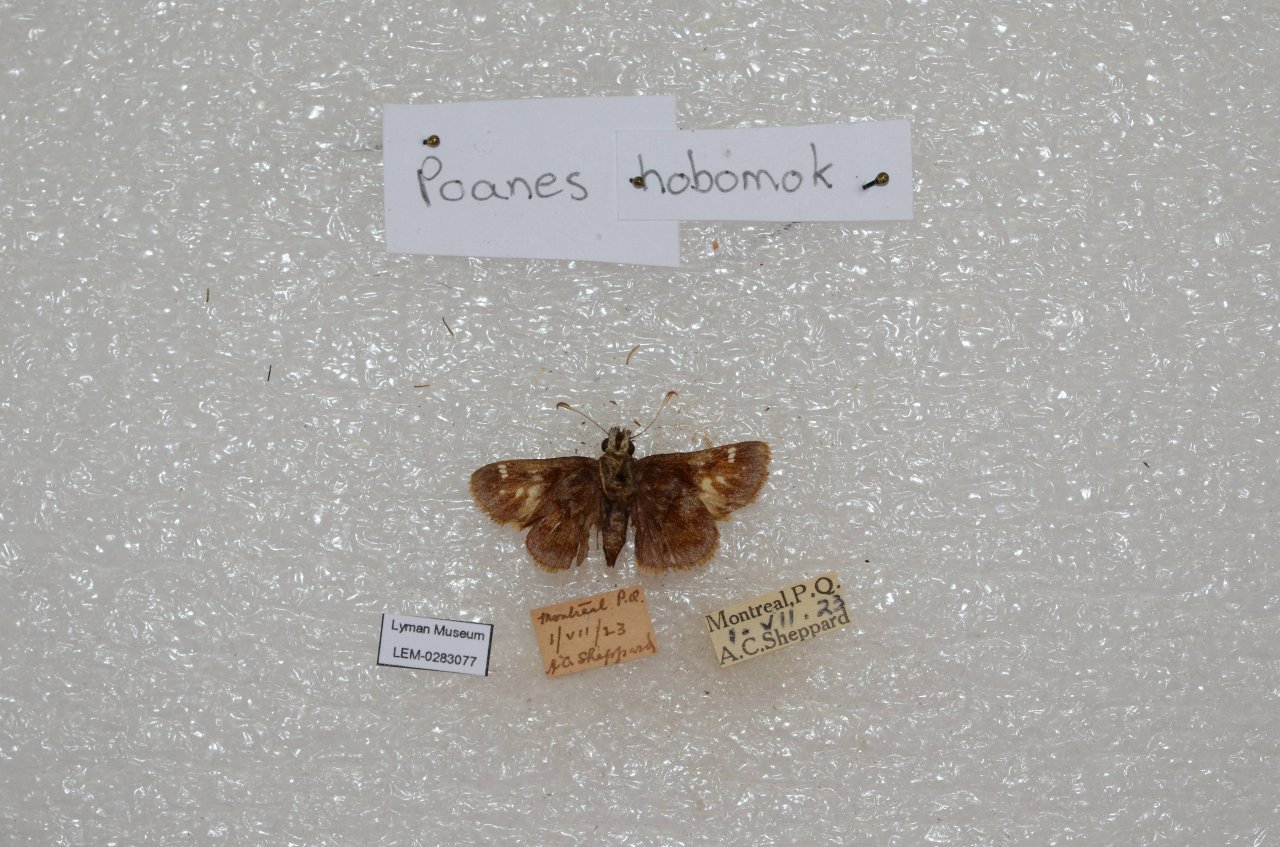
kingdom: Animalia
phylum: Arthropoda
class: Insecta
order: Lepidoptera
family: Hesperiidae
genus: Lon
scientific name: Lon hobomok
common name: Hobomok Skipper
